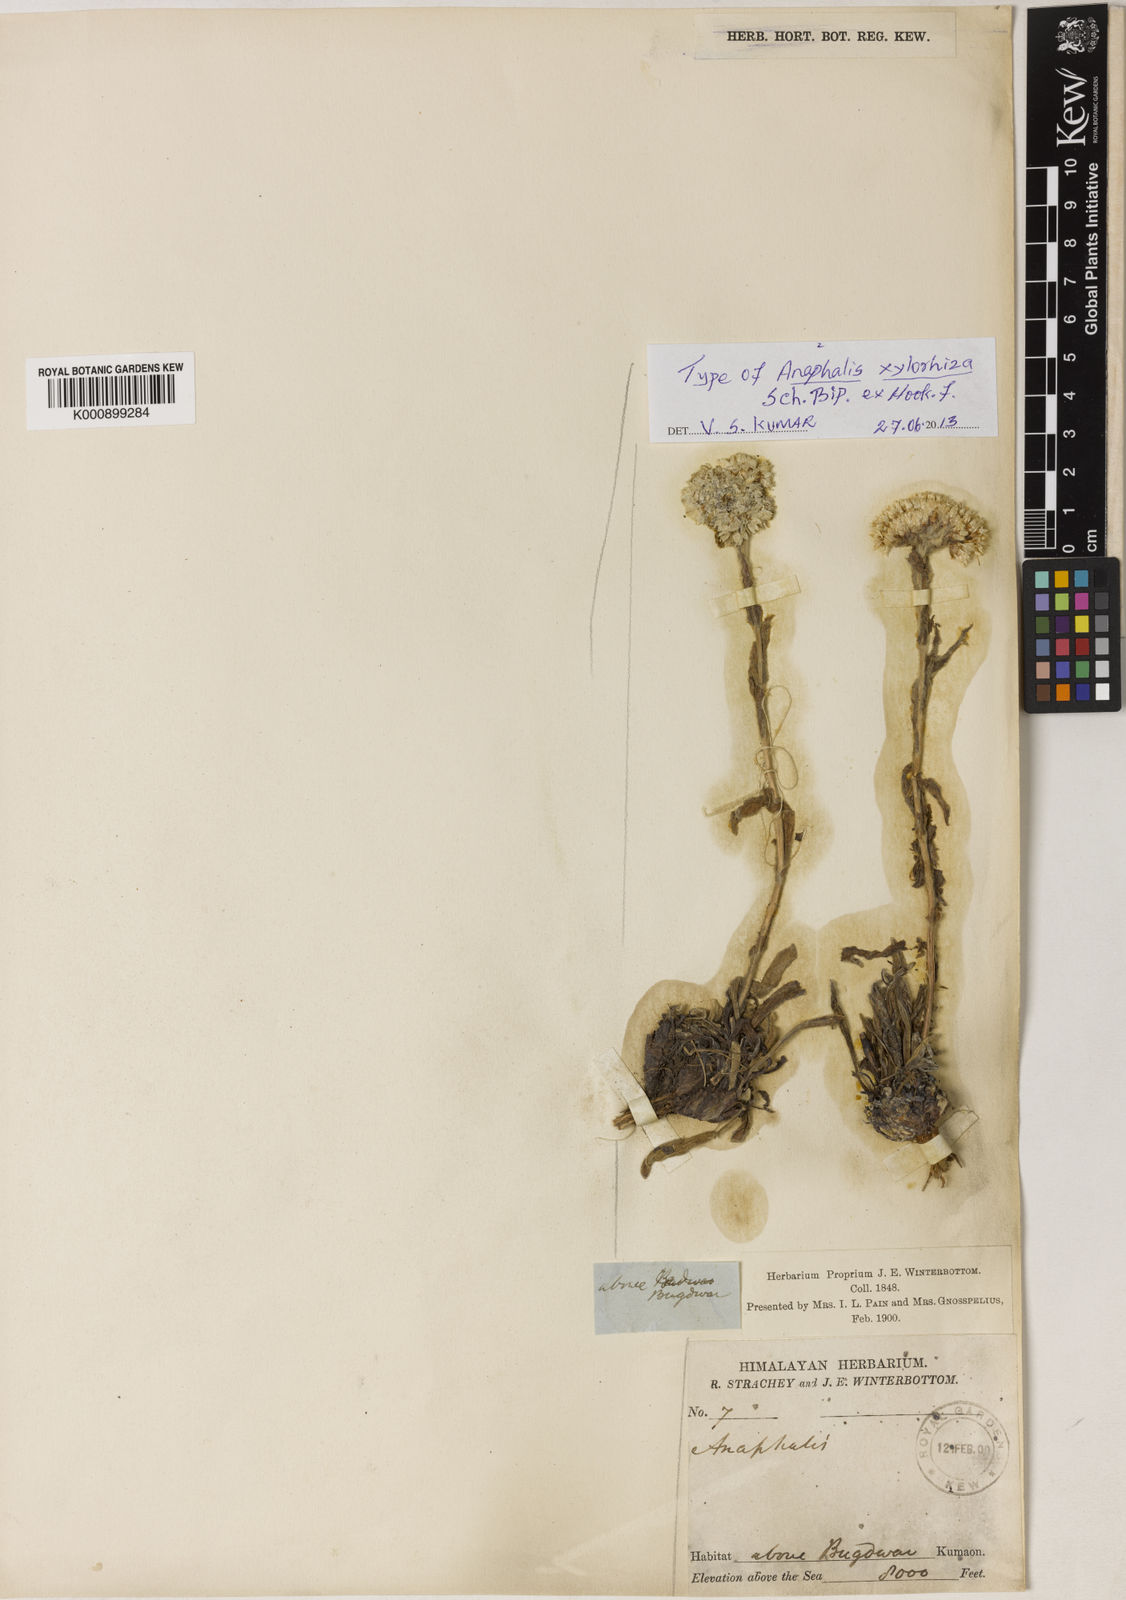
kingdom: Plantae
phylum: Tracheophyta
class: Magnoliopsida
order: Asterales
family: Asteraceae
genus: Anaphalis
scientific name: Anaphalis xylorhiza
